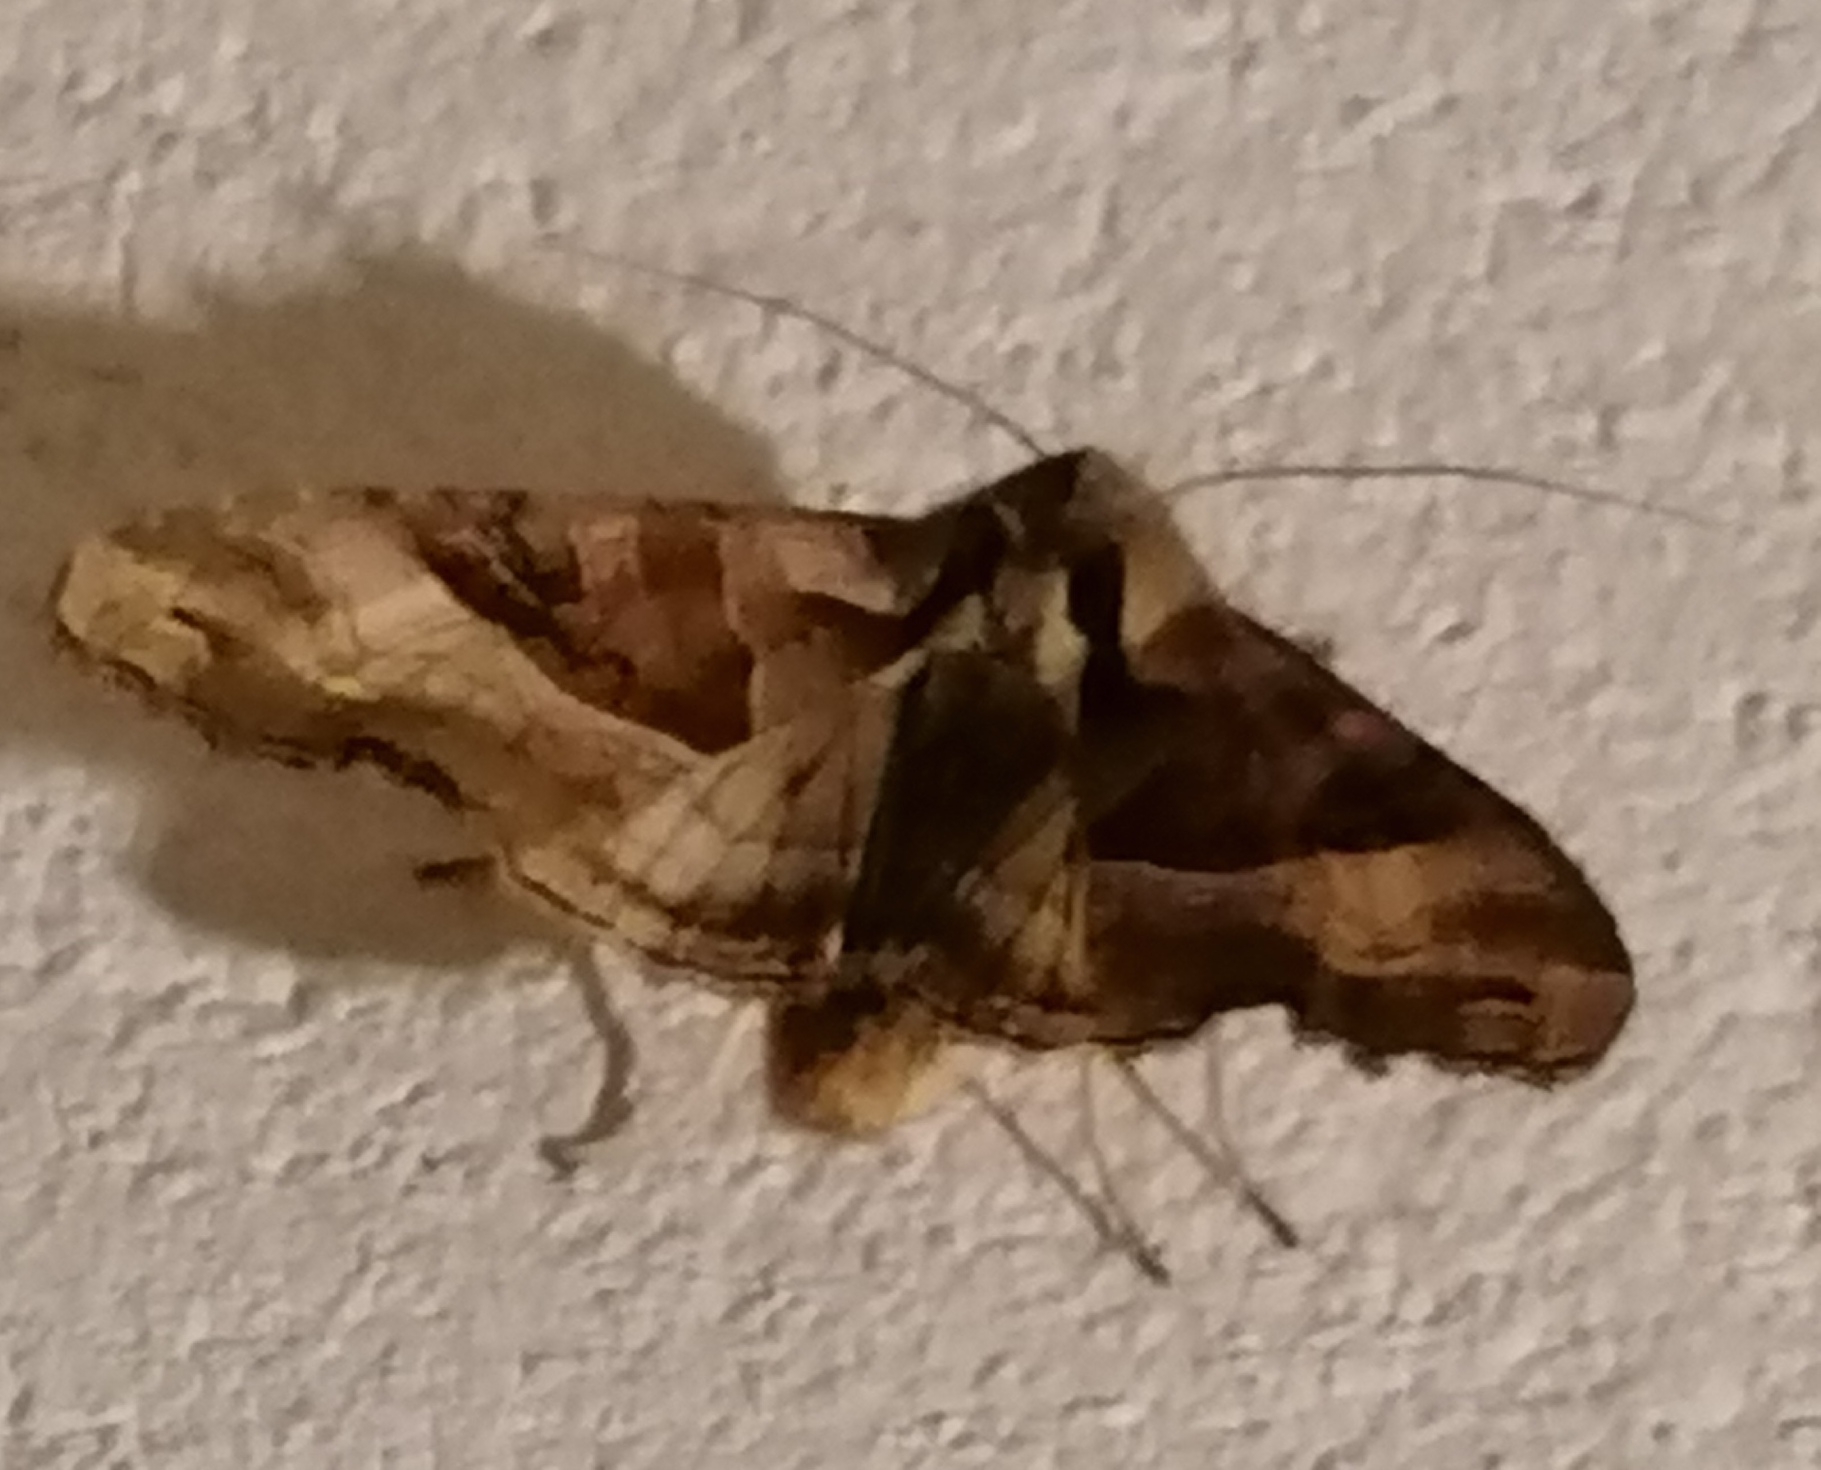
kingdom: Animalia
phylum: Arthropoda
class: Insecta
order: Lepidoptera
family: Noctuidae
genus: Phlogophora
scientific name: Phlogophora meticulosa
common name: Agatugle
